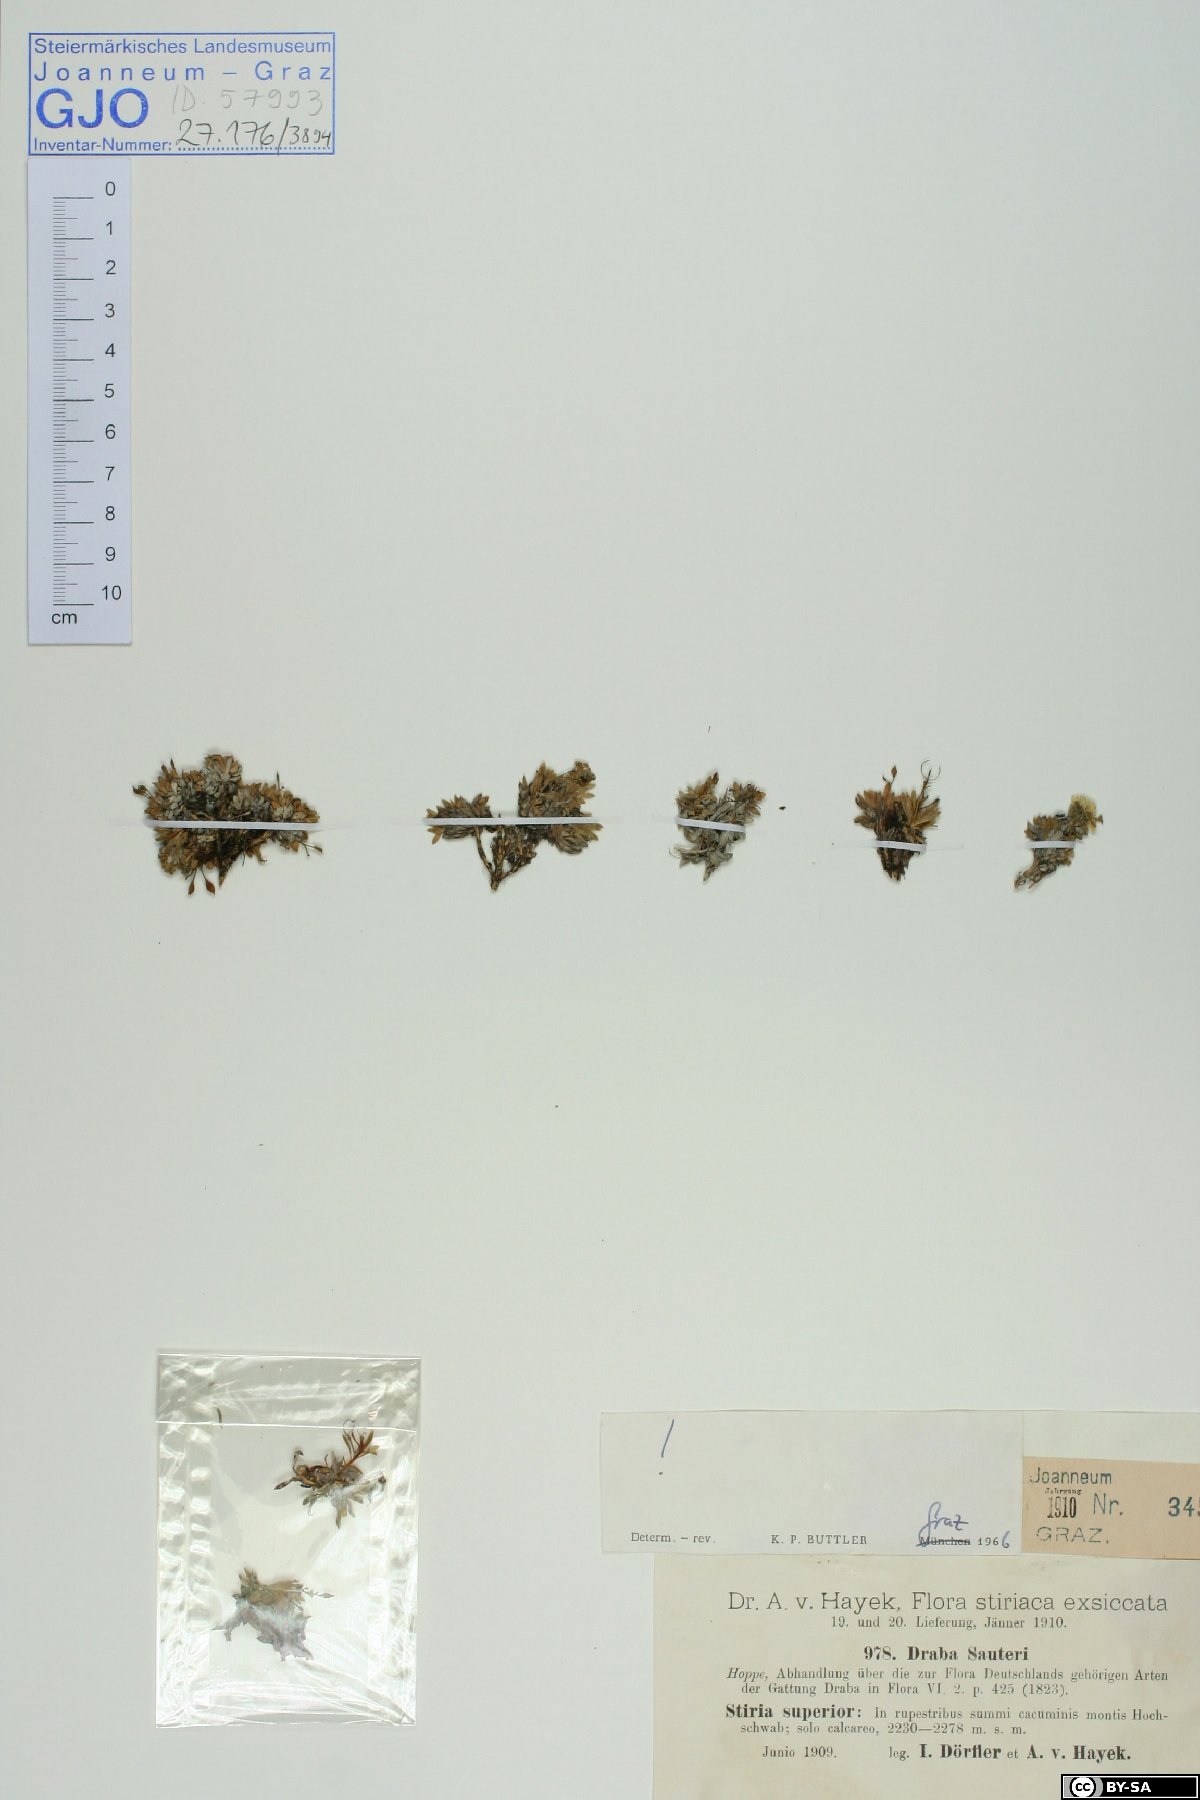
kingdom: Plantae
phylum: Tracheophyta
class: Magnoliopsida
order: Brassicales
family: Brassicaceae
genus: Draba
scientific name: Draba sauteri
